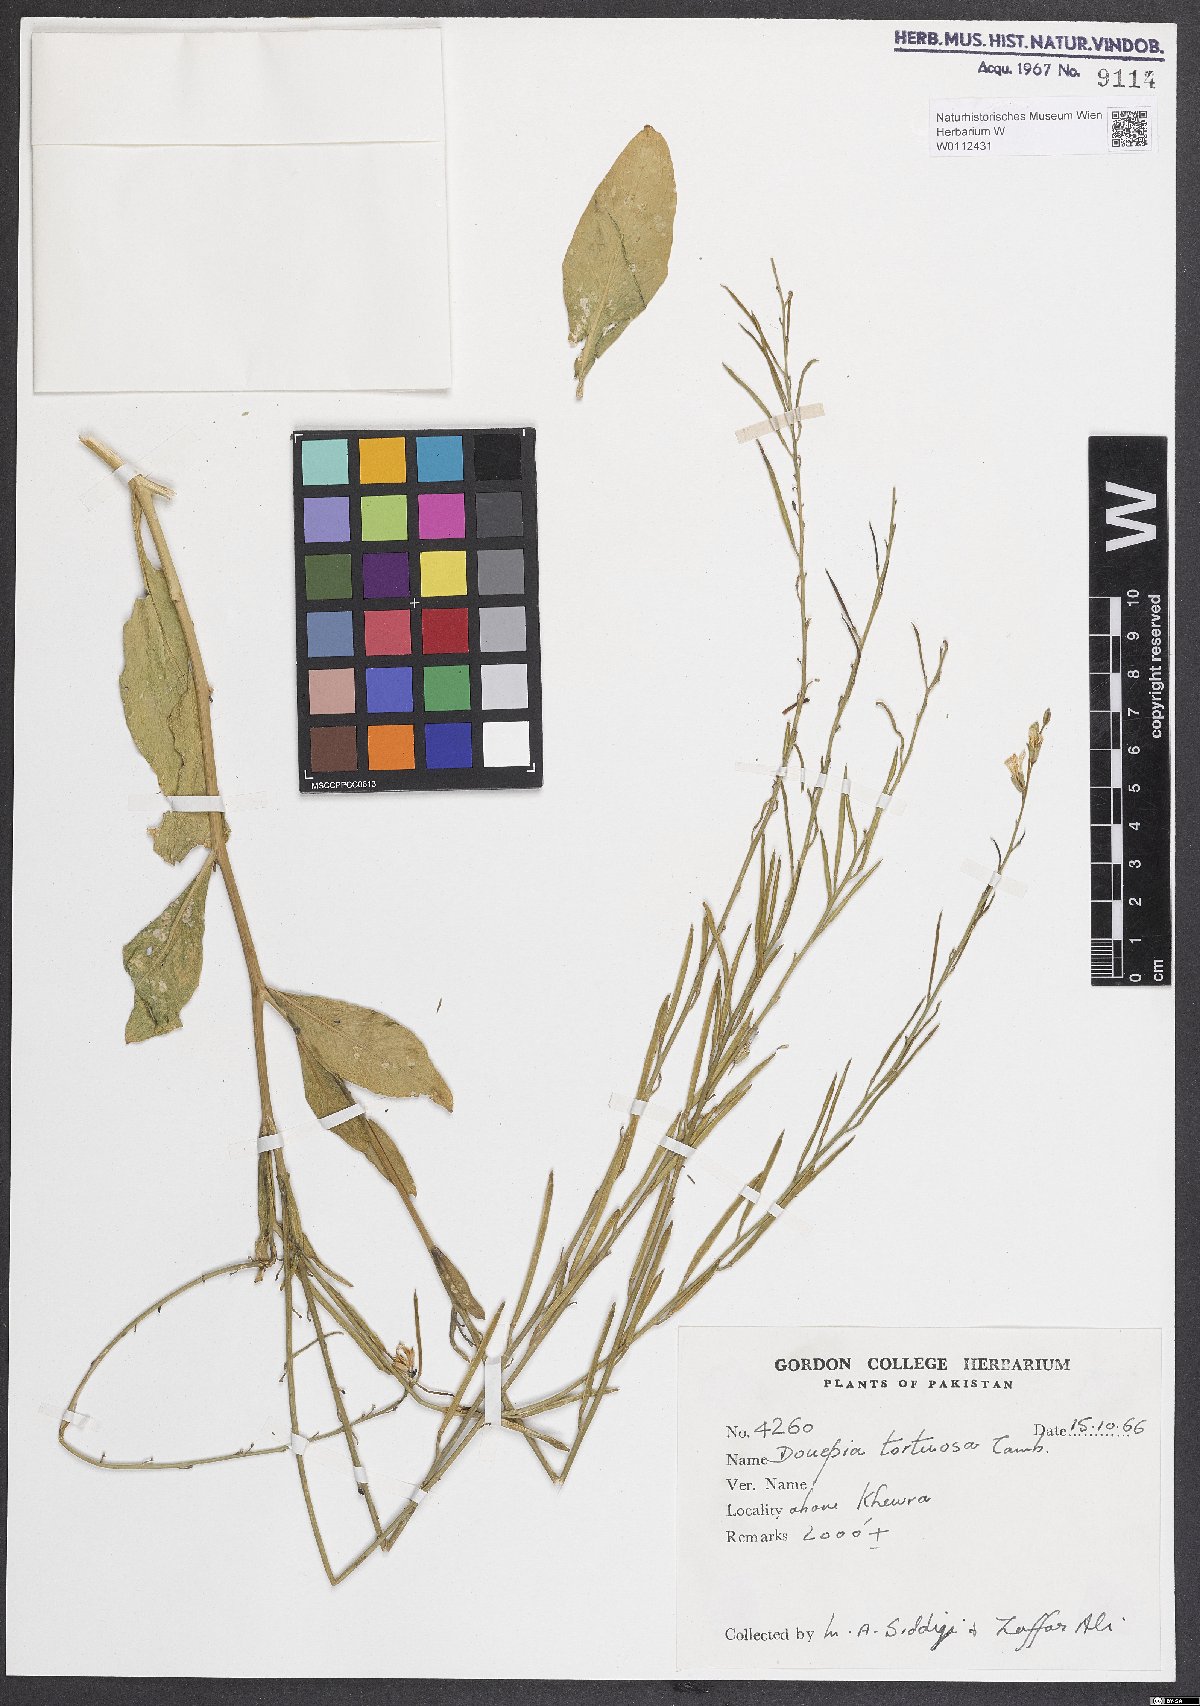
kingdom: Plantae
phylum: Tracheophyta
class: Magnoliopsida
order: Brassicales
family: Brassicaceae
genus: Douepea
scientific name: Douepea tortuosa
